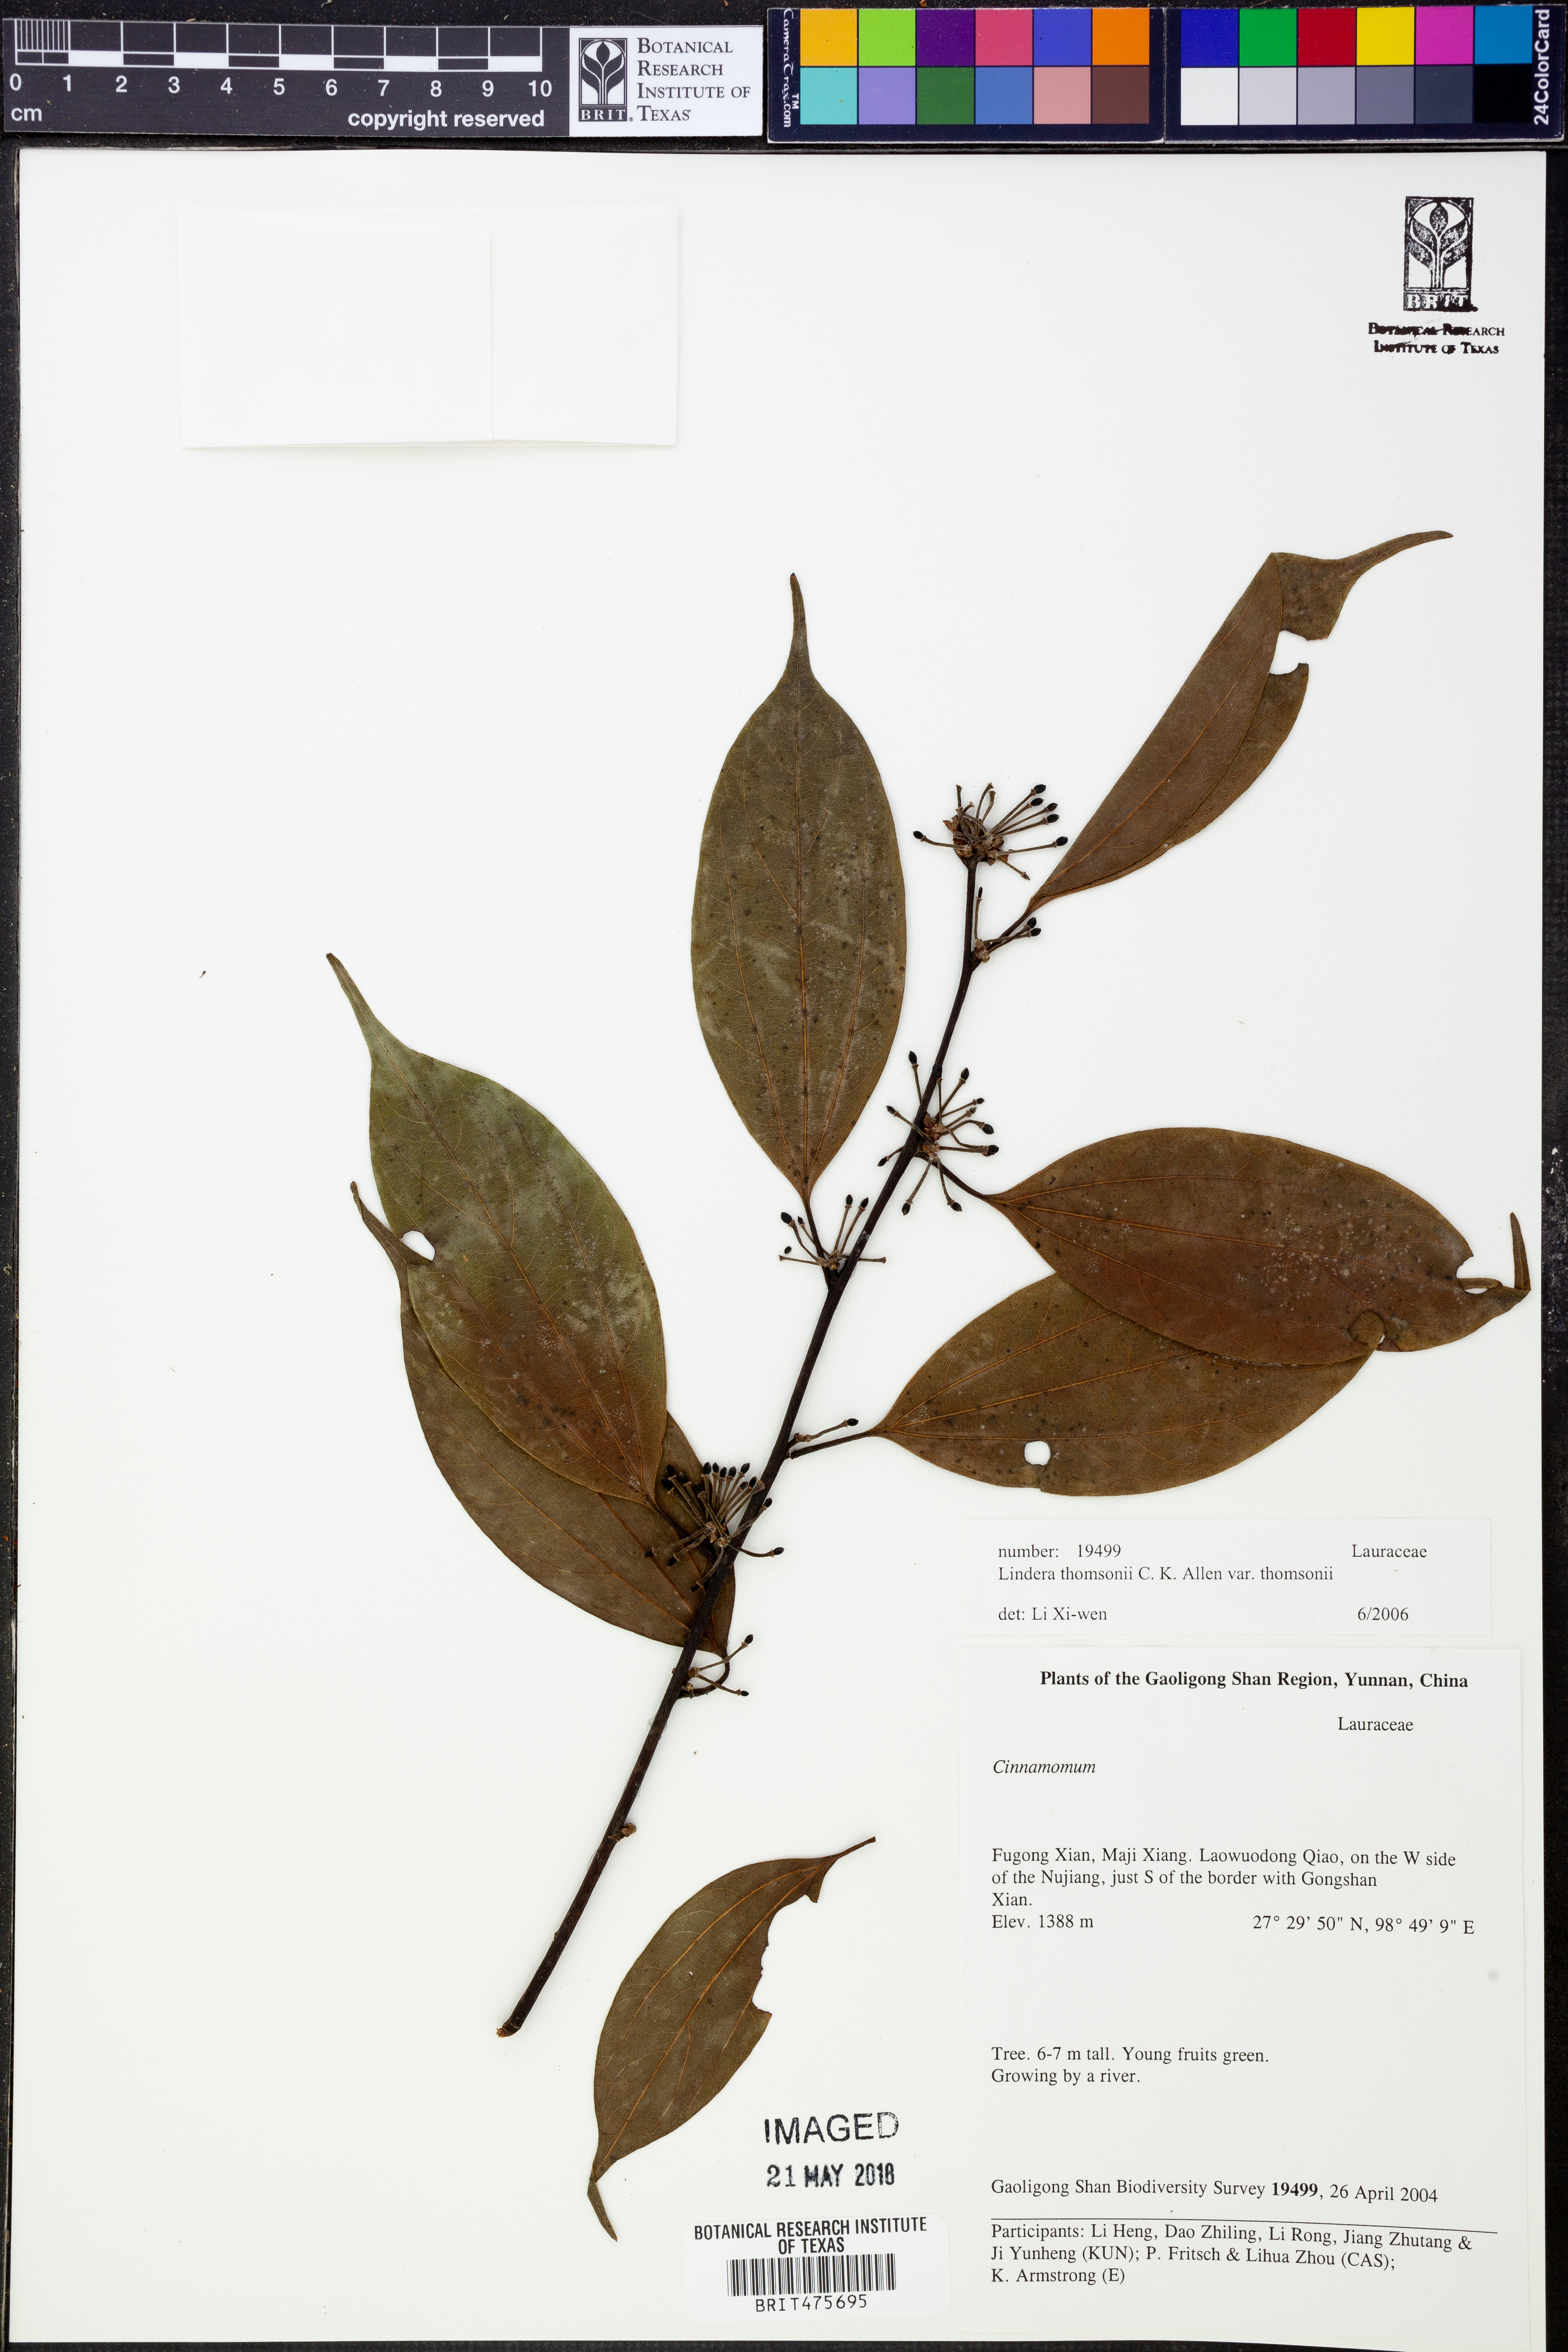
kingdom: Plantae
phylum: Tracheophyta
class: Magnoliopsida
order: Laurales
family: Lauraceae
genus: Lindera
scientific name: Lindera thomsonii
